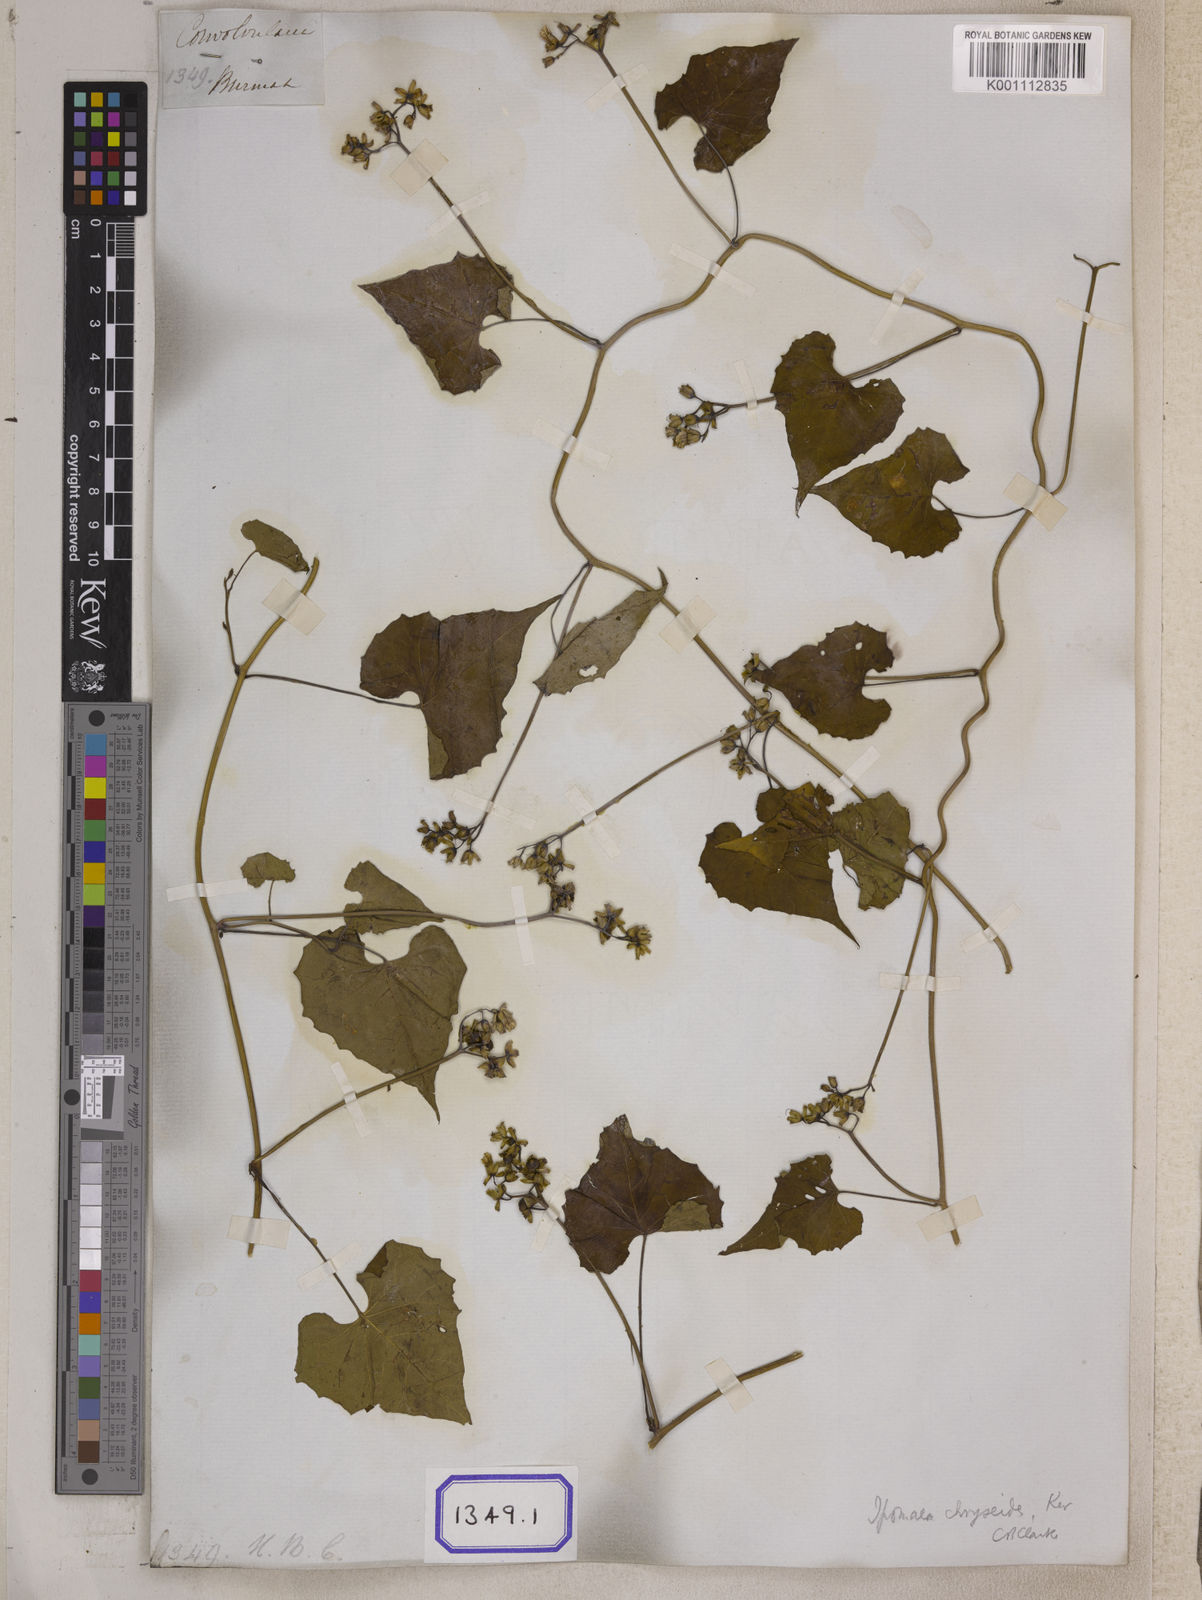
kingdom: Plantae
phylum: Tracheophyta
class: Magnoliopsida
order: Solanales
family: Convolvulaceae
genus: Merremia
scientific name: Merremia hederacea
